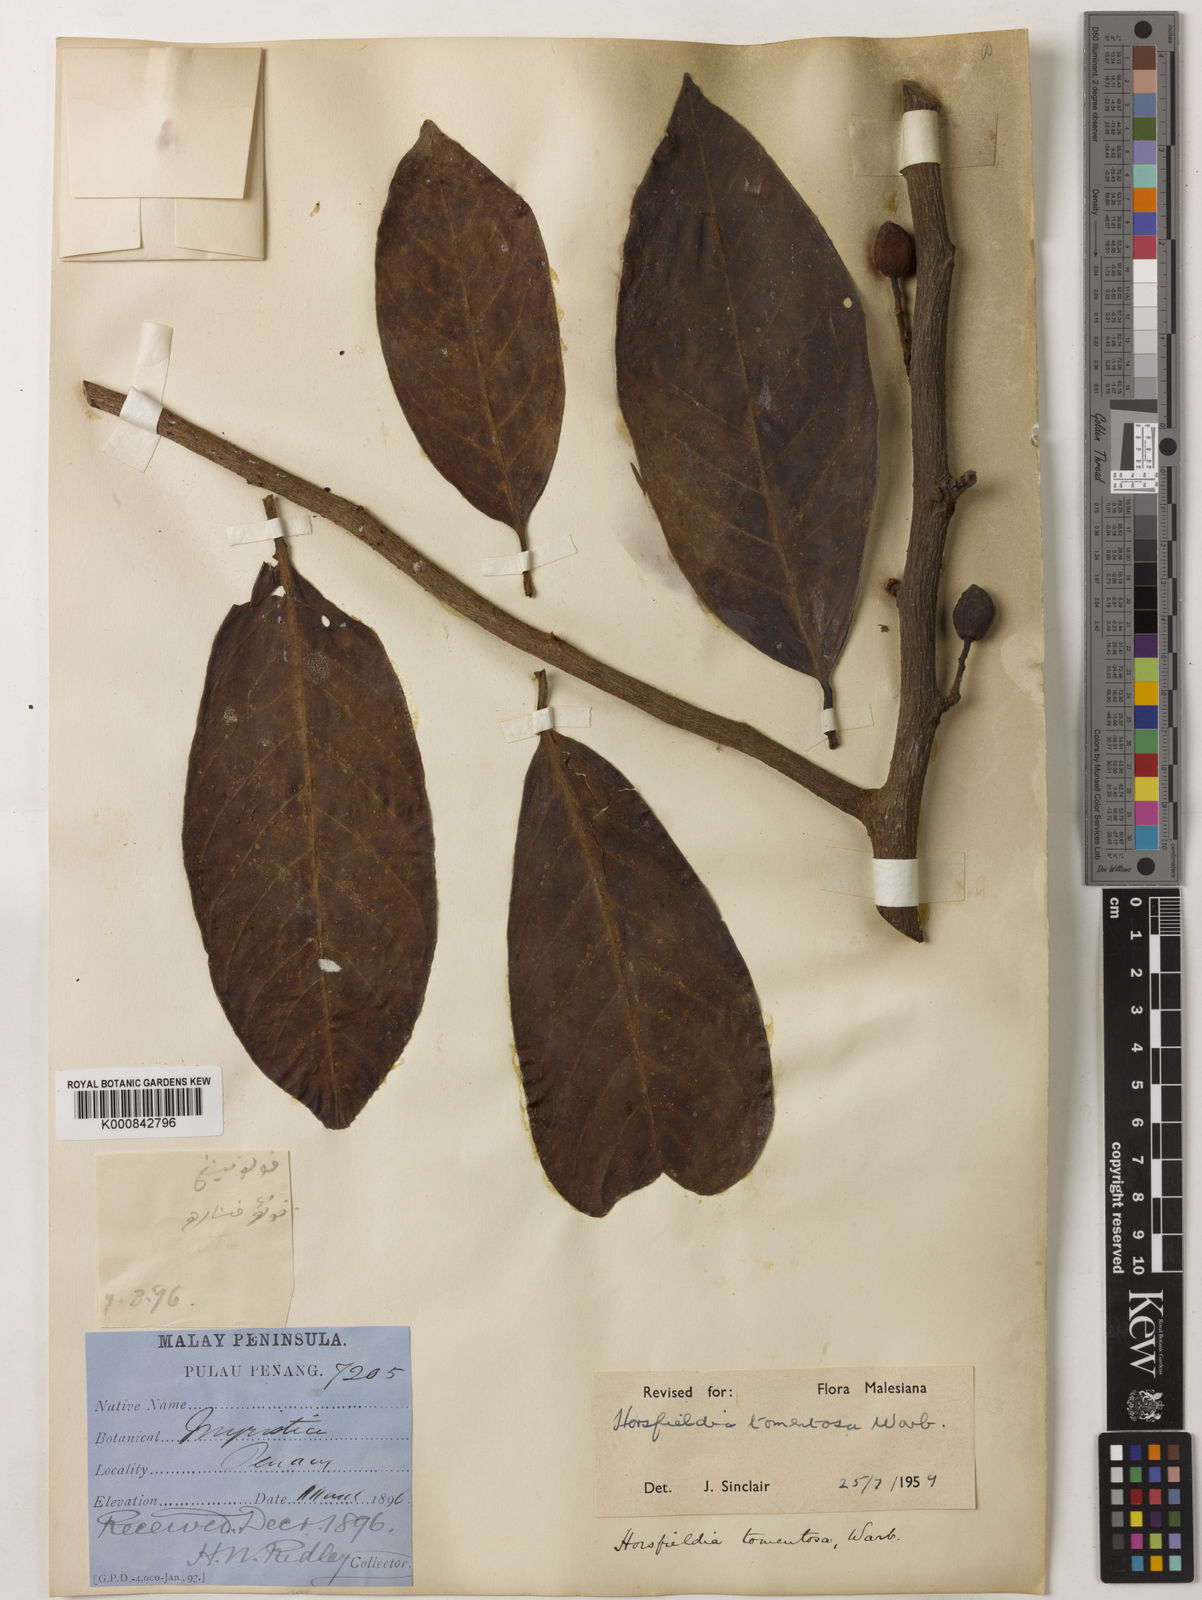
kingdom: Plantae
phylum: Tracheophyta
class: Magnoliopsida
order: Magnoliales
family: Myristicaceae
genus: Horsfieldia
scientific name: Horsfieldia tomentosa
